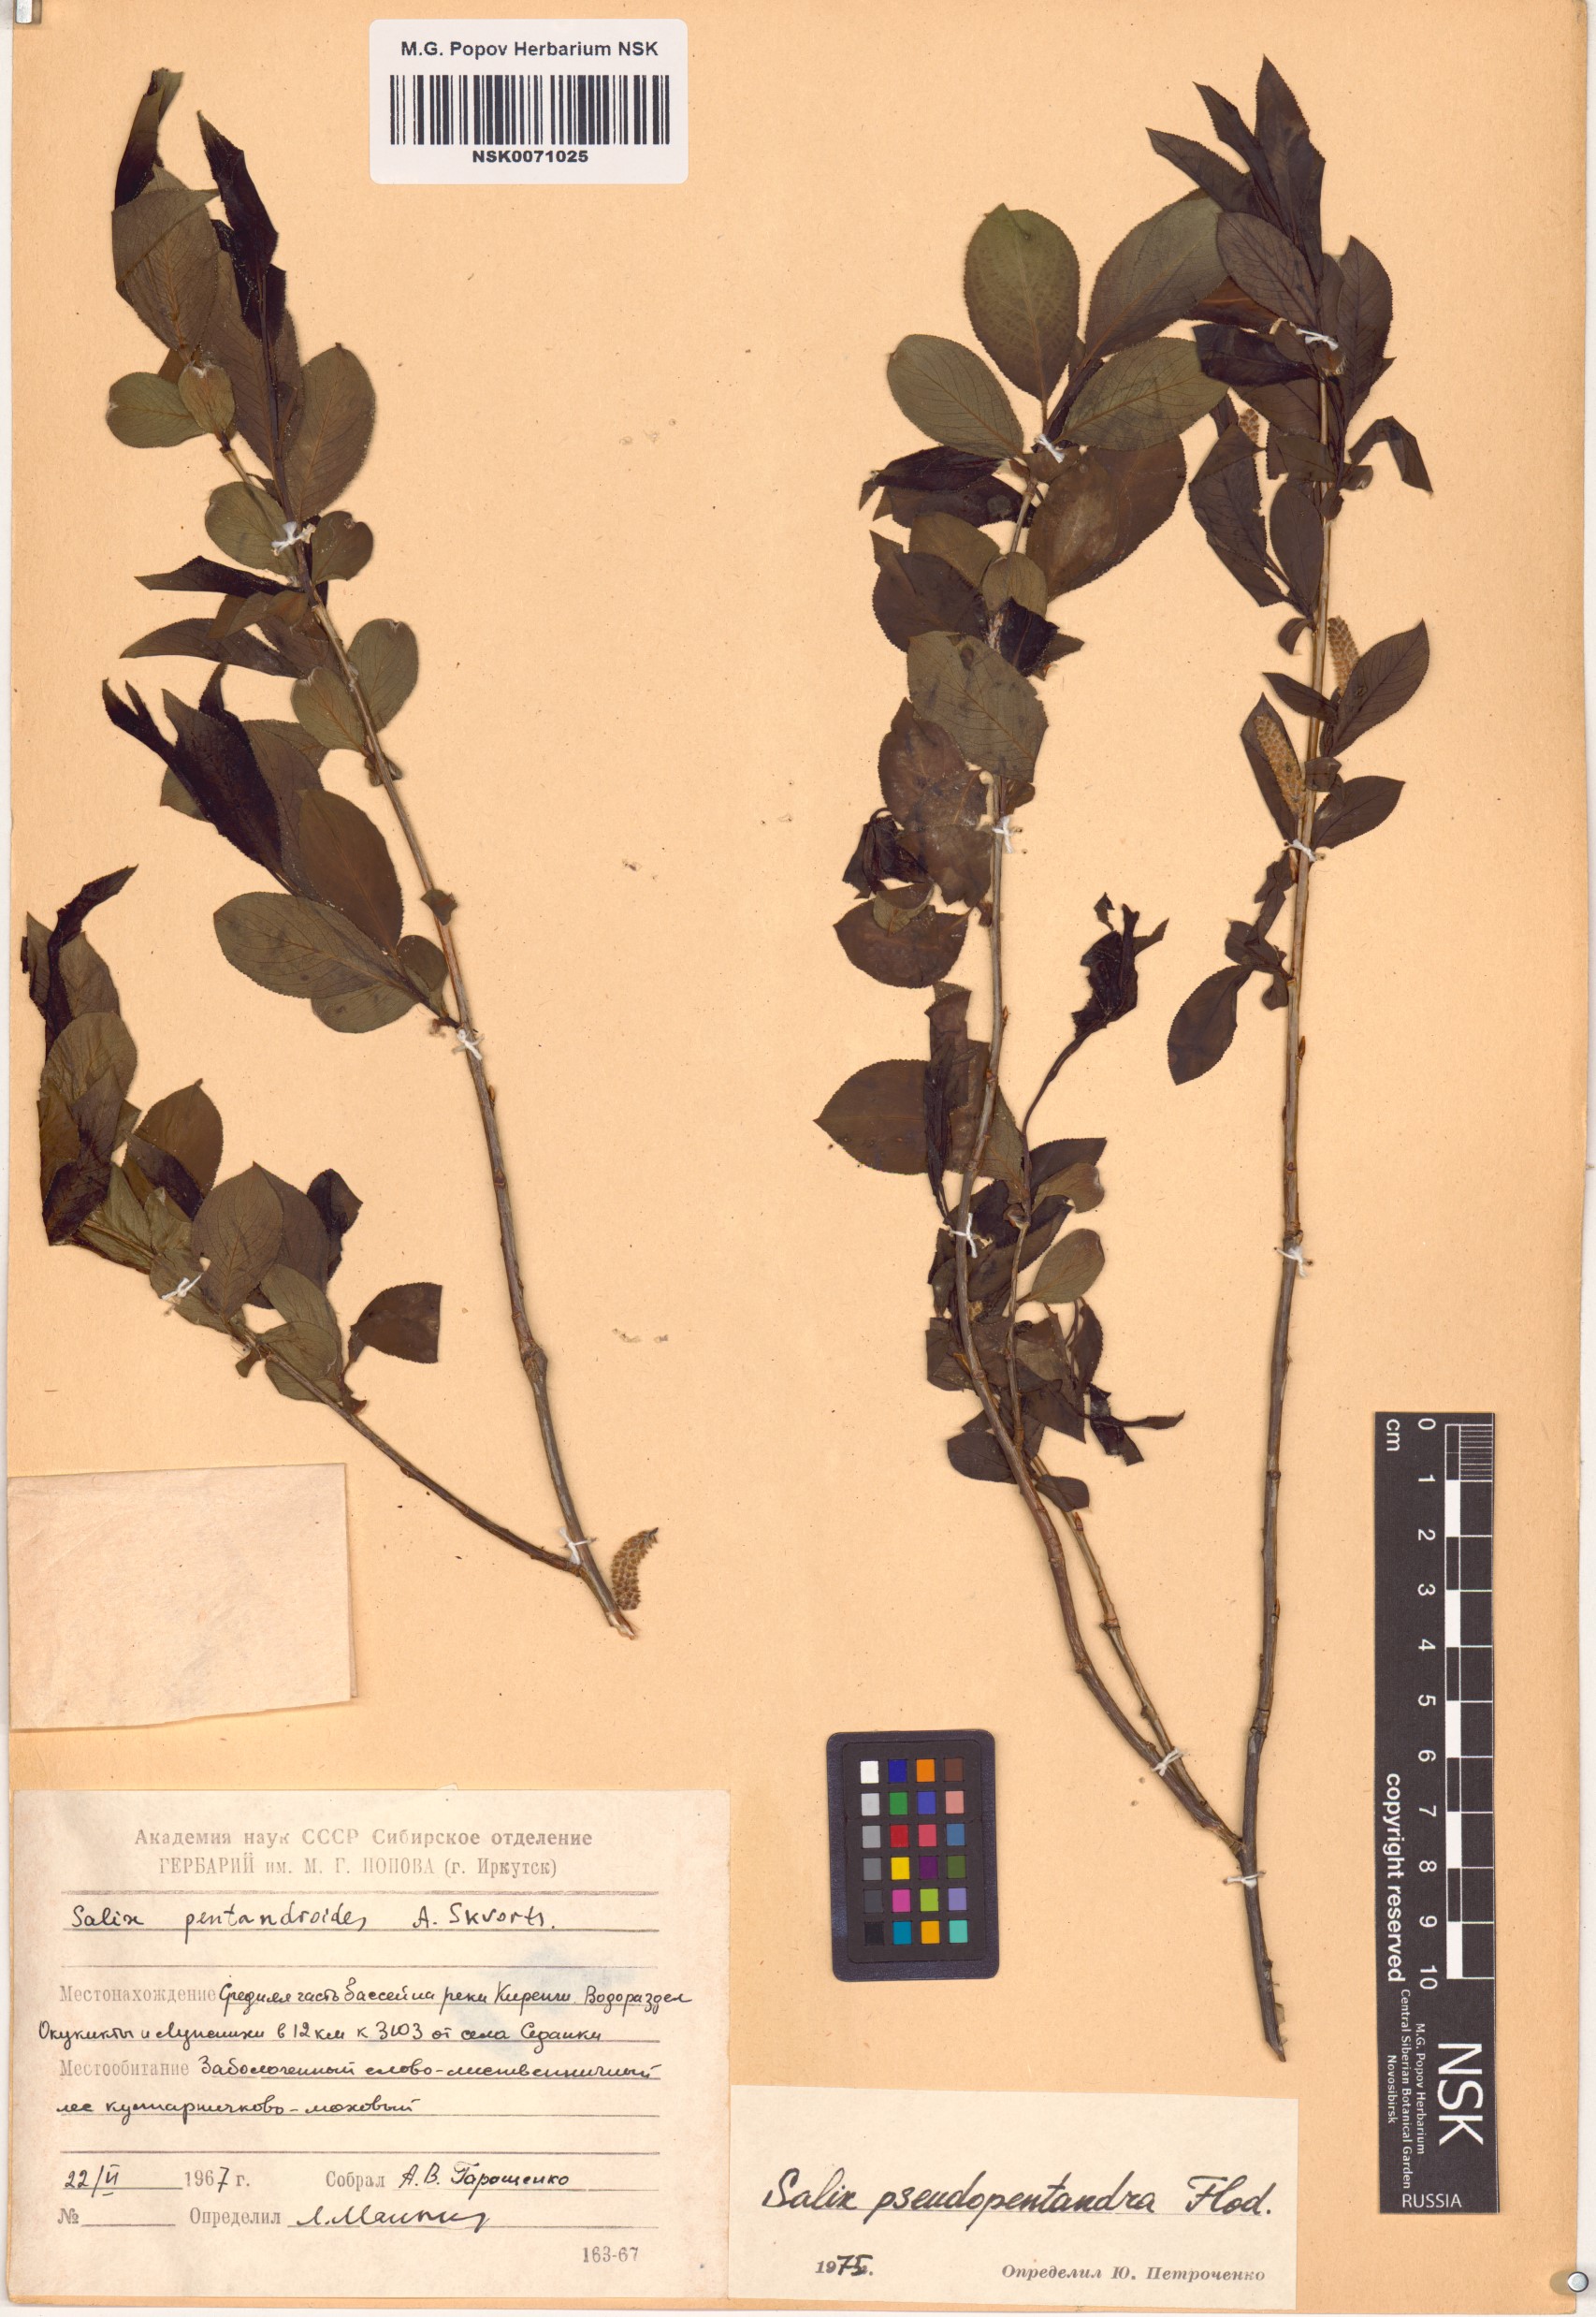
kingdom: Plantae
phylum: Tracheophyta
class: Magnoliopsida
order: Malpighiales
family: Salicaceae
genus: Salix
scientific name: Salix pseudopentandra
